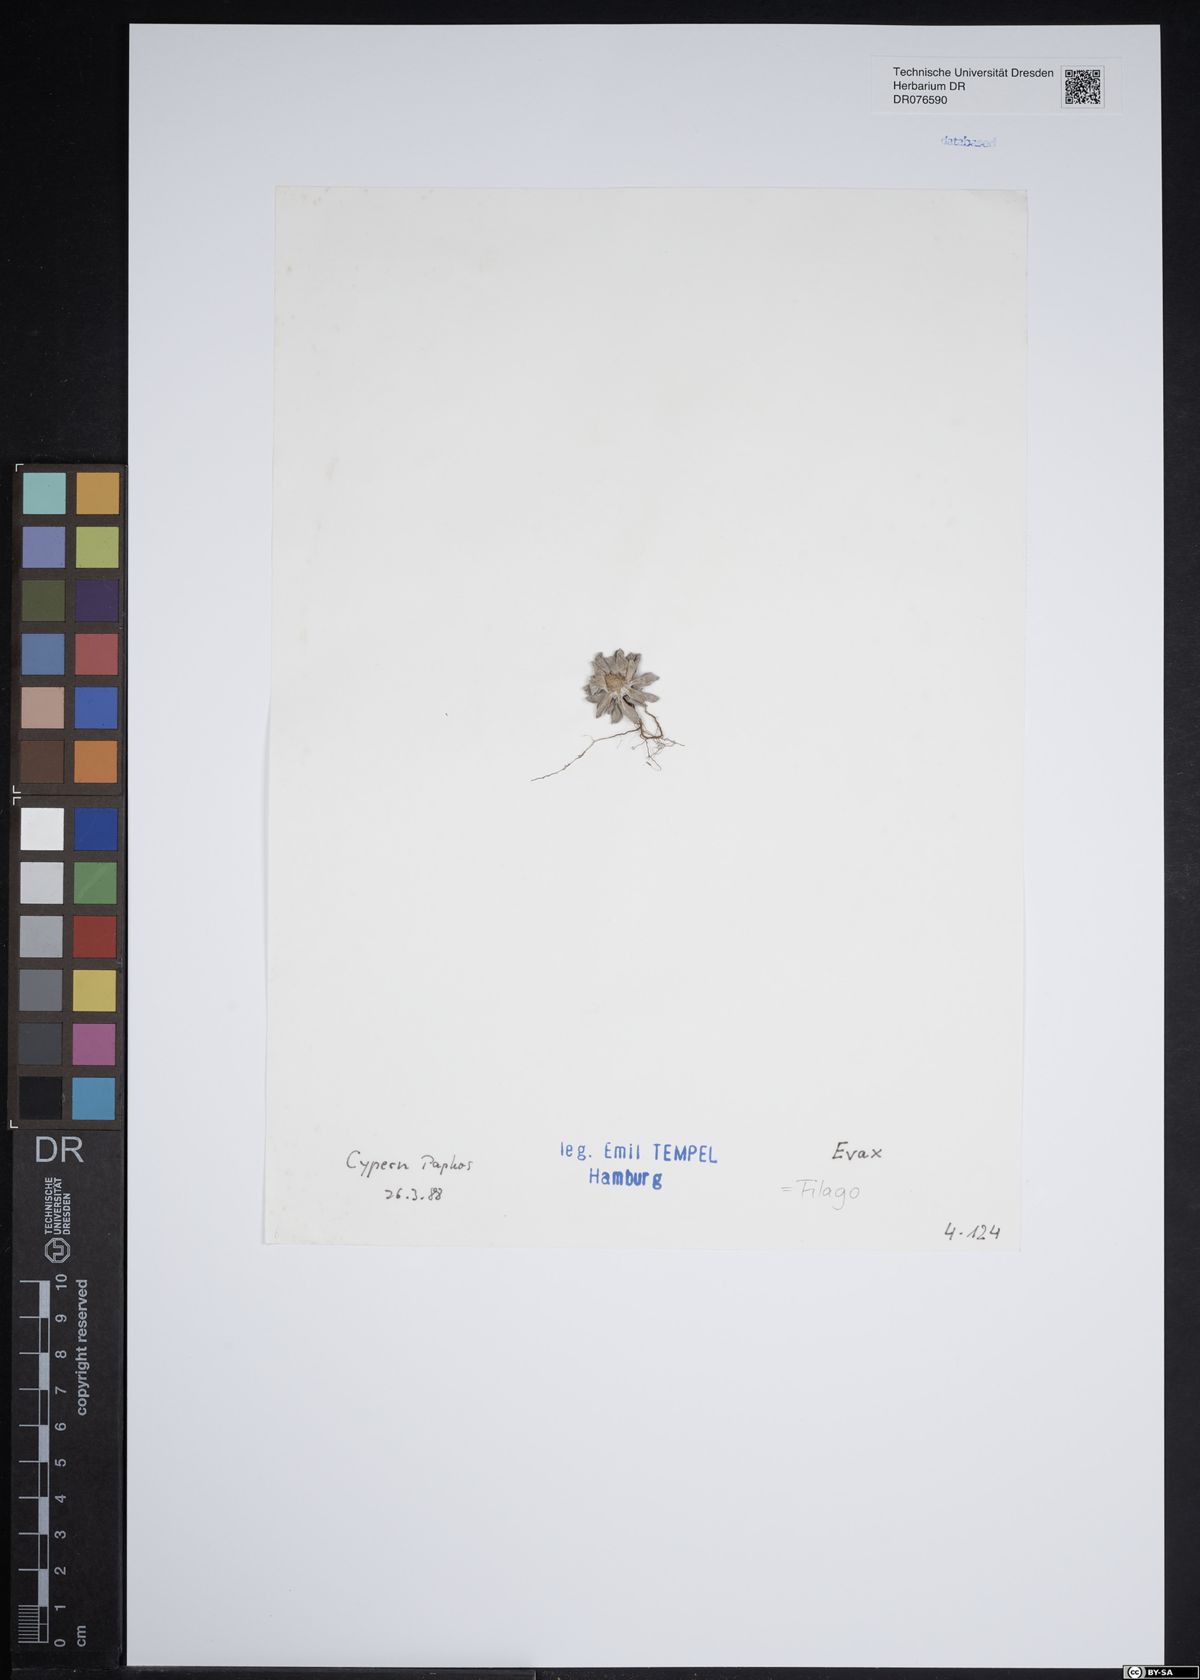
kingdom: Plantae
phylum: Tracheophyta
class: Magnoliopsida
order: Asterales
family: Asteraceae
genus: Filago
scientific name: Filago
